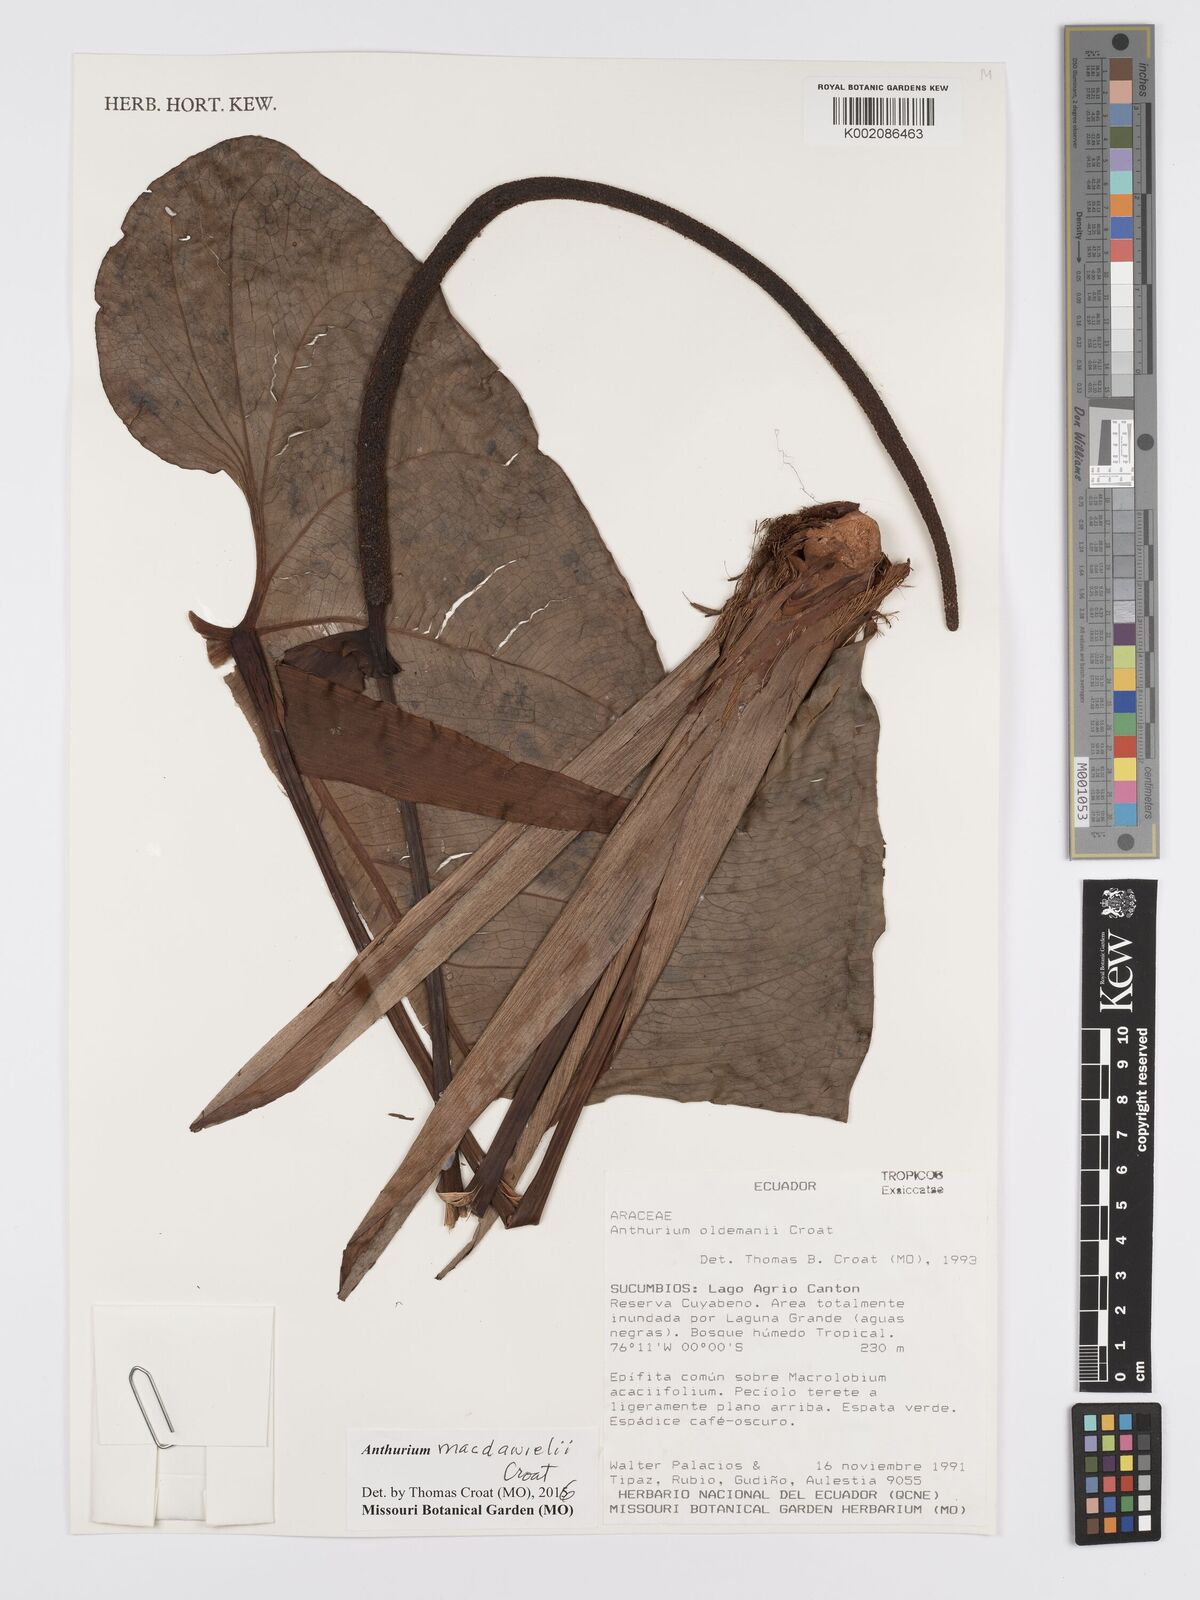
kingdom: Plantae
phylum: Tracheophyta
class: Liliopsida
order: Alismatales
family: Araceae
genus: Anthurium
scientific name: Anthurium macdanielii
